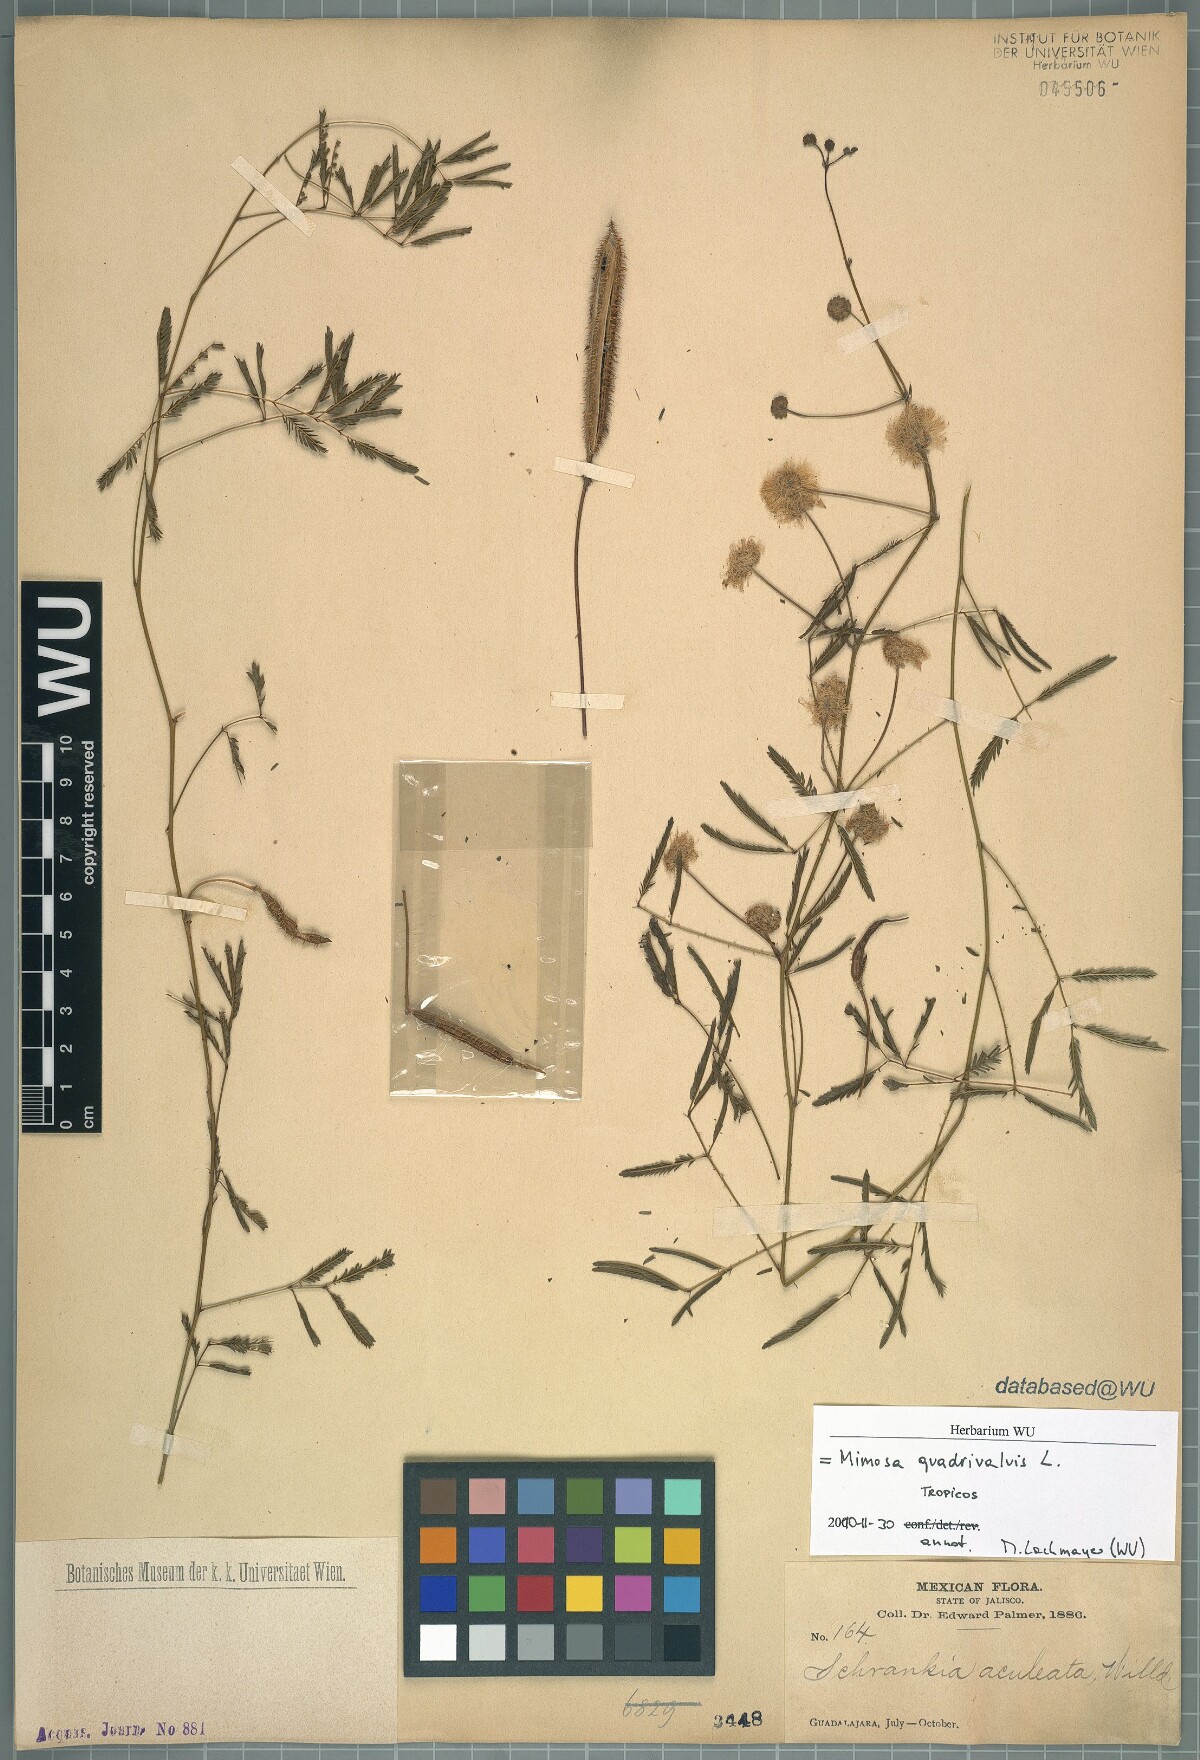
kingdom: Plantae
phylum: Tracheophyta
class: Magnoliopsida
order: Fabales
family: Fabaceae
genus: Mimosa
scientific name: Mimosa quadrivalvis
